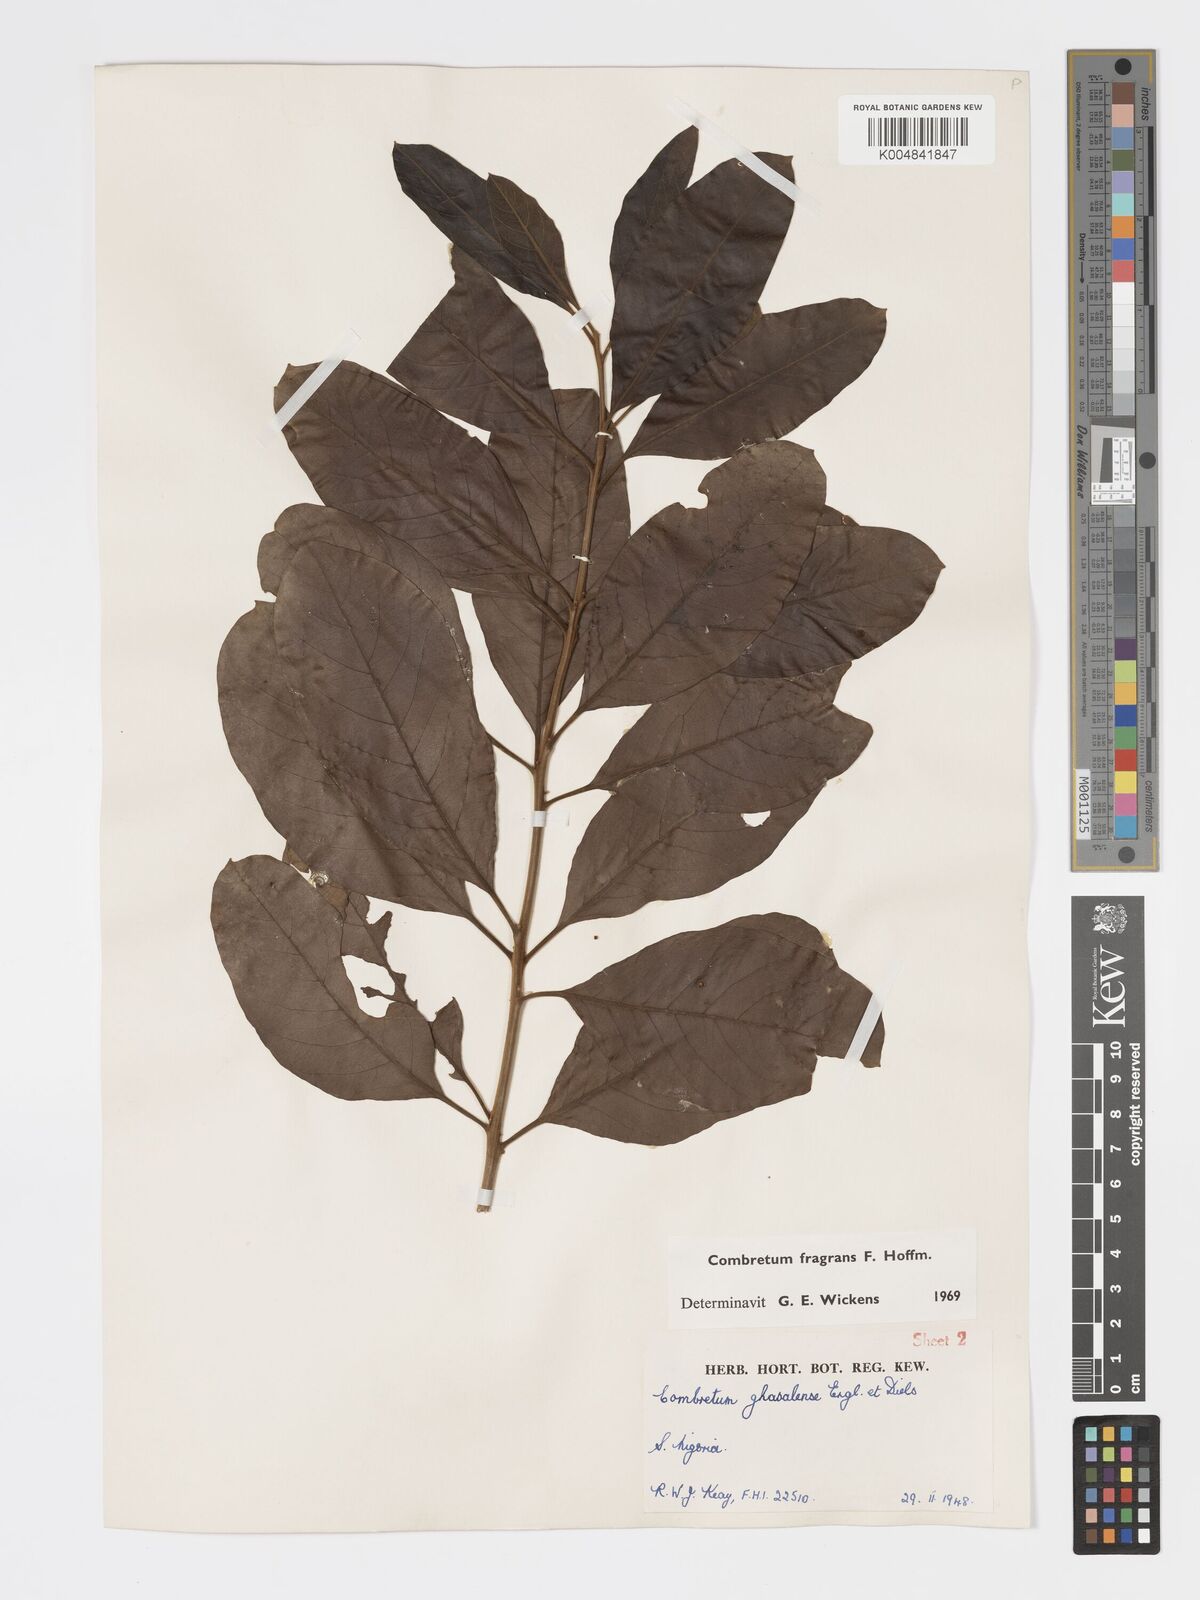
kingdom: Plantae
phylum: Tracheophyta
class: Magnoliopsida
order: Myrtales
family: Combretaceae
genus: Combretum
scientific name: Combretum adenogonium
